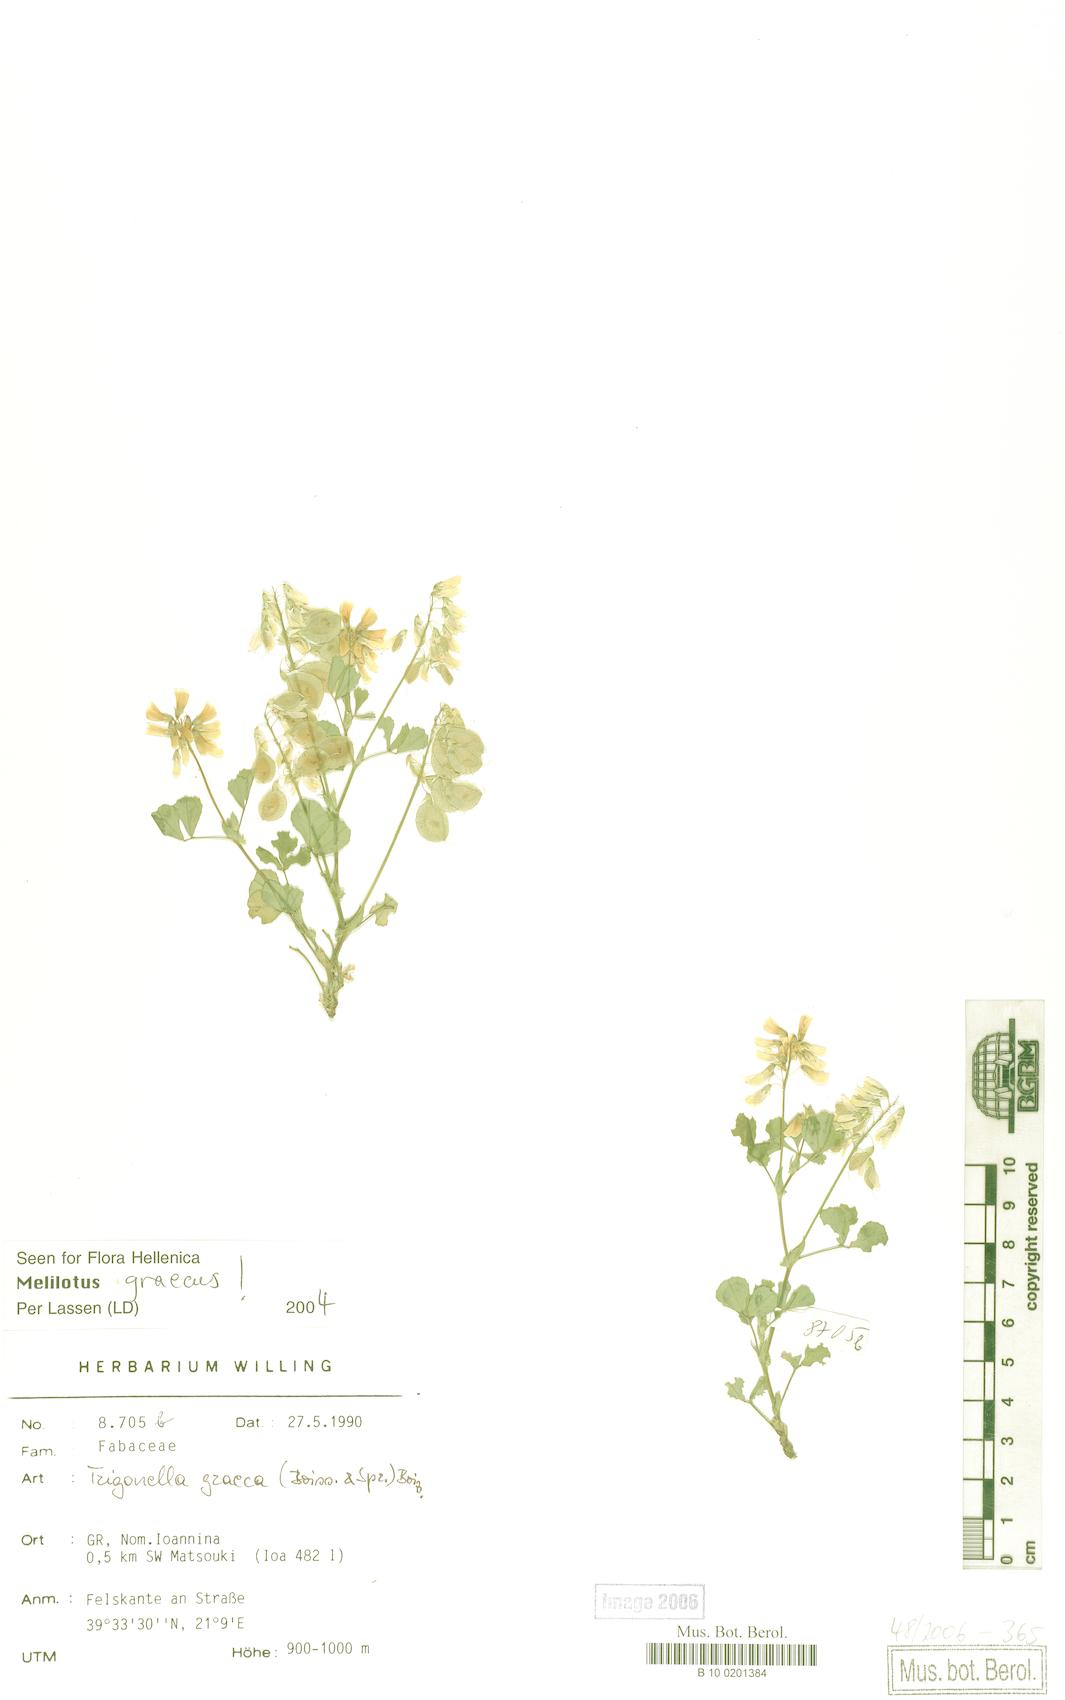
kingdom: Plantae
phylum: Tracheophyta
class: Magnoliopsida
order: Fabales
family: Fabaceae
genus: Trigonella
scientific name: Trigonella graeca
